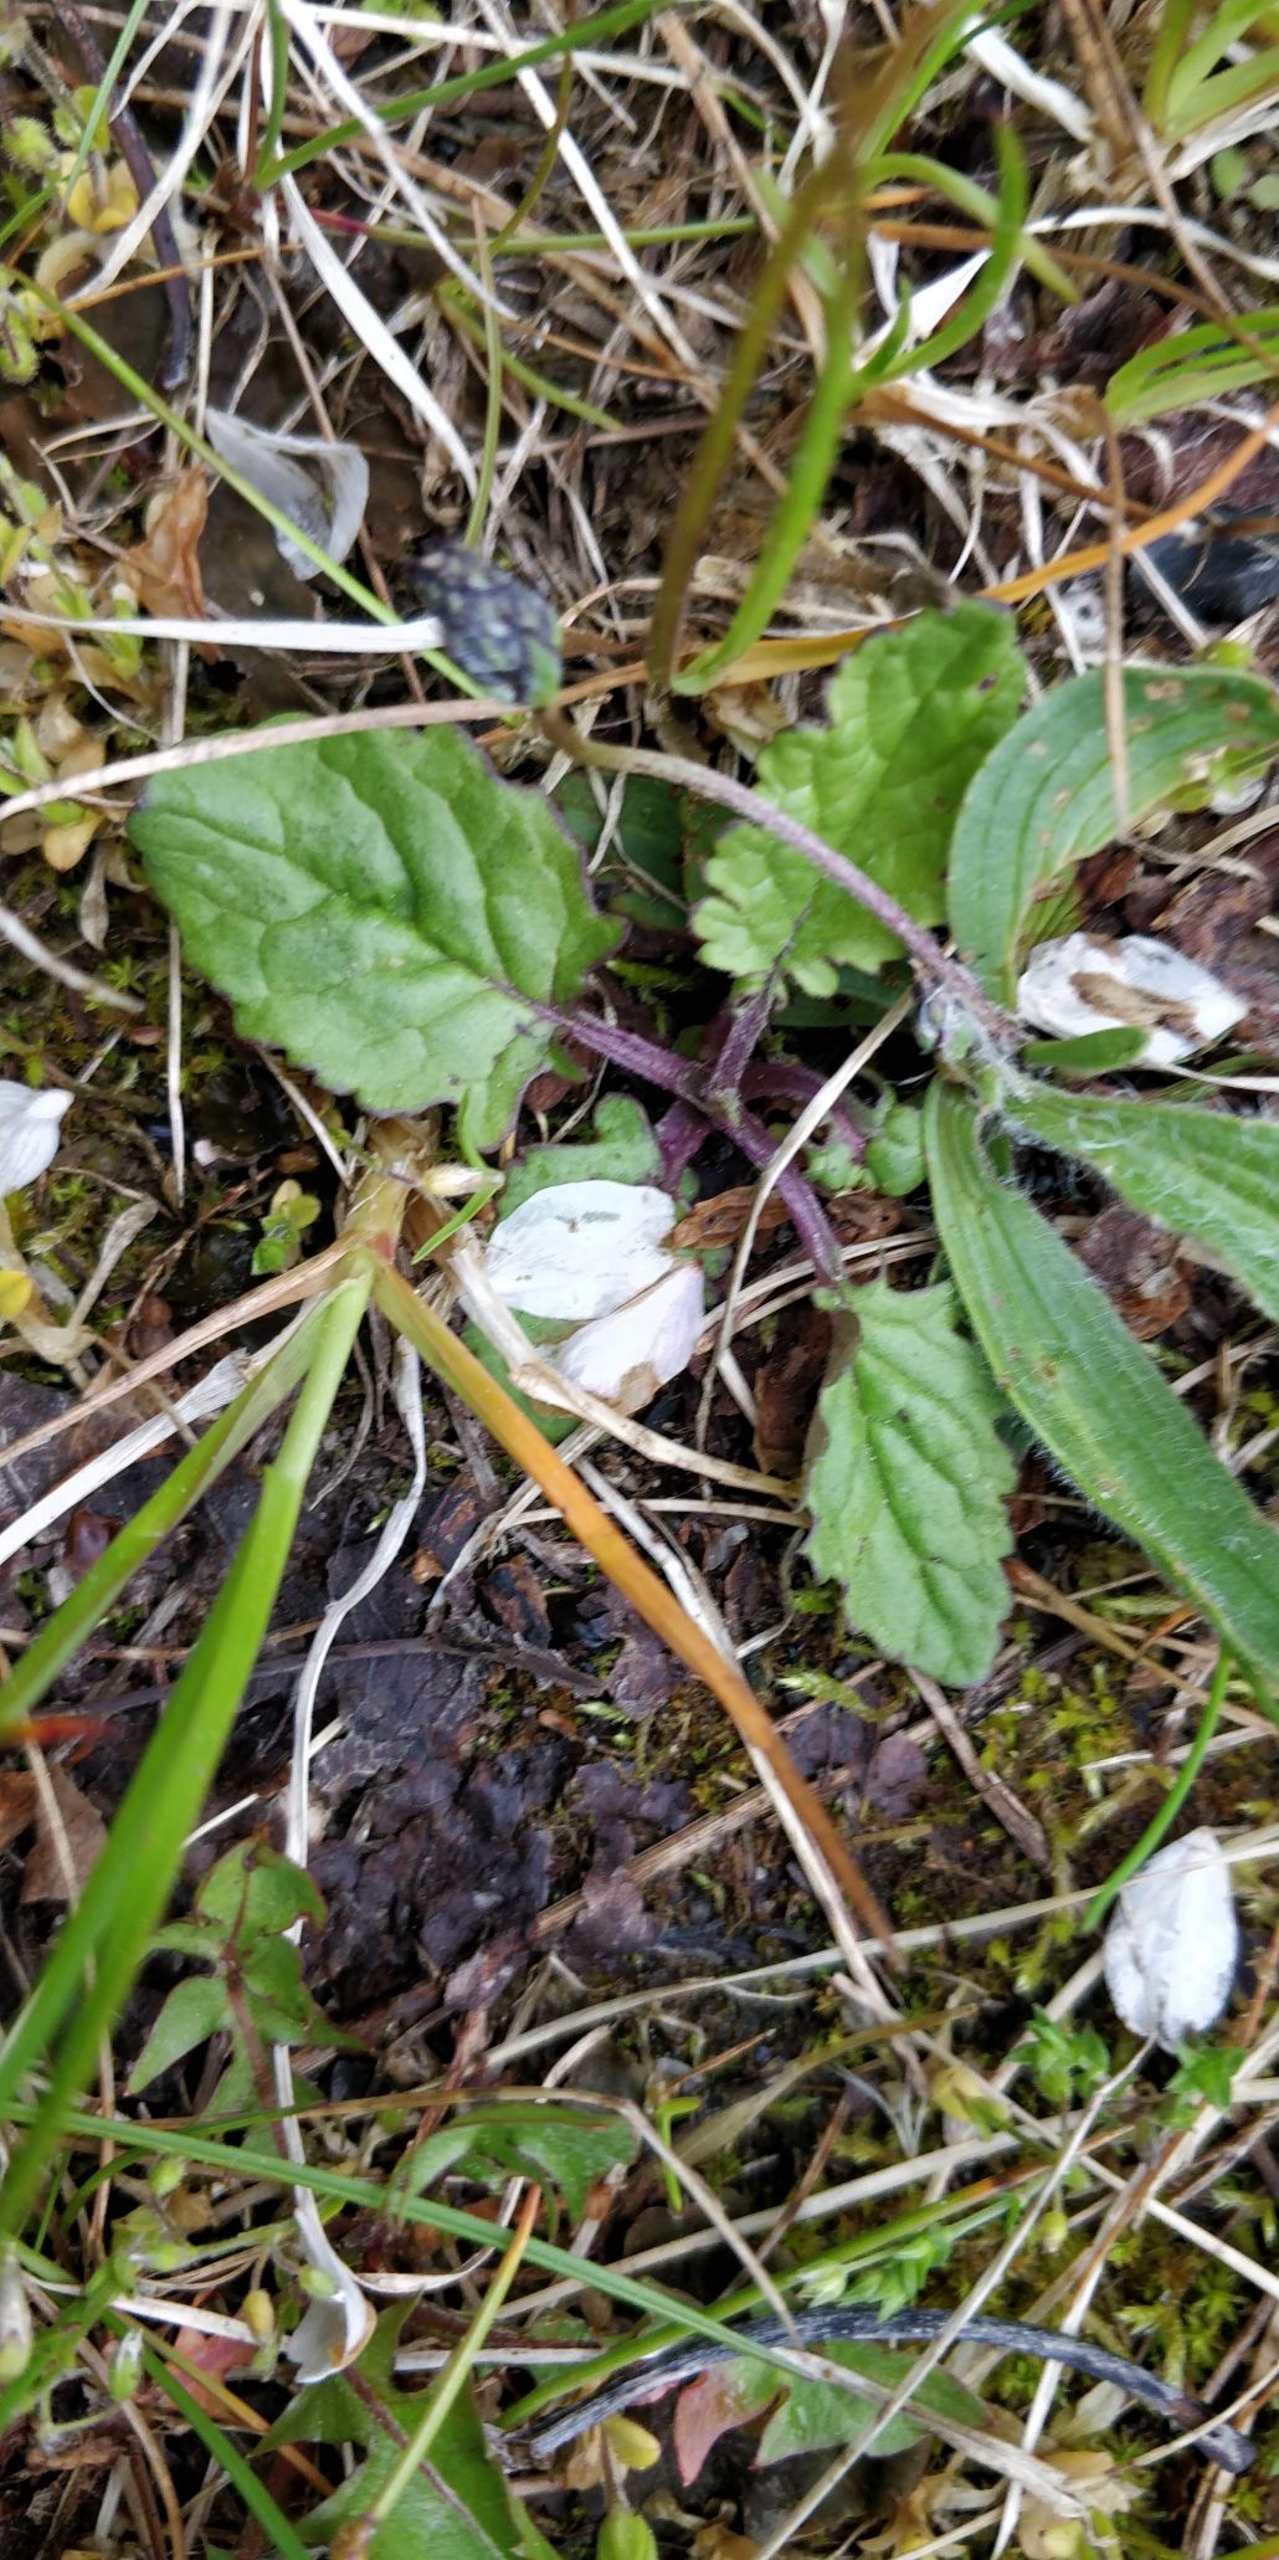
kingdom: Plantae
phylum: Tracheophyta
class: Magnoliopsida
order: Asterales
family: Asteraceae
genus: Jacobaea
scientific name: Jacobaea
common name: Jacobaea
